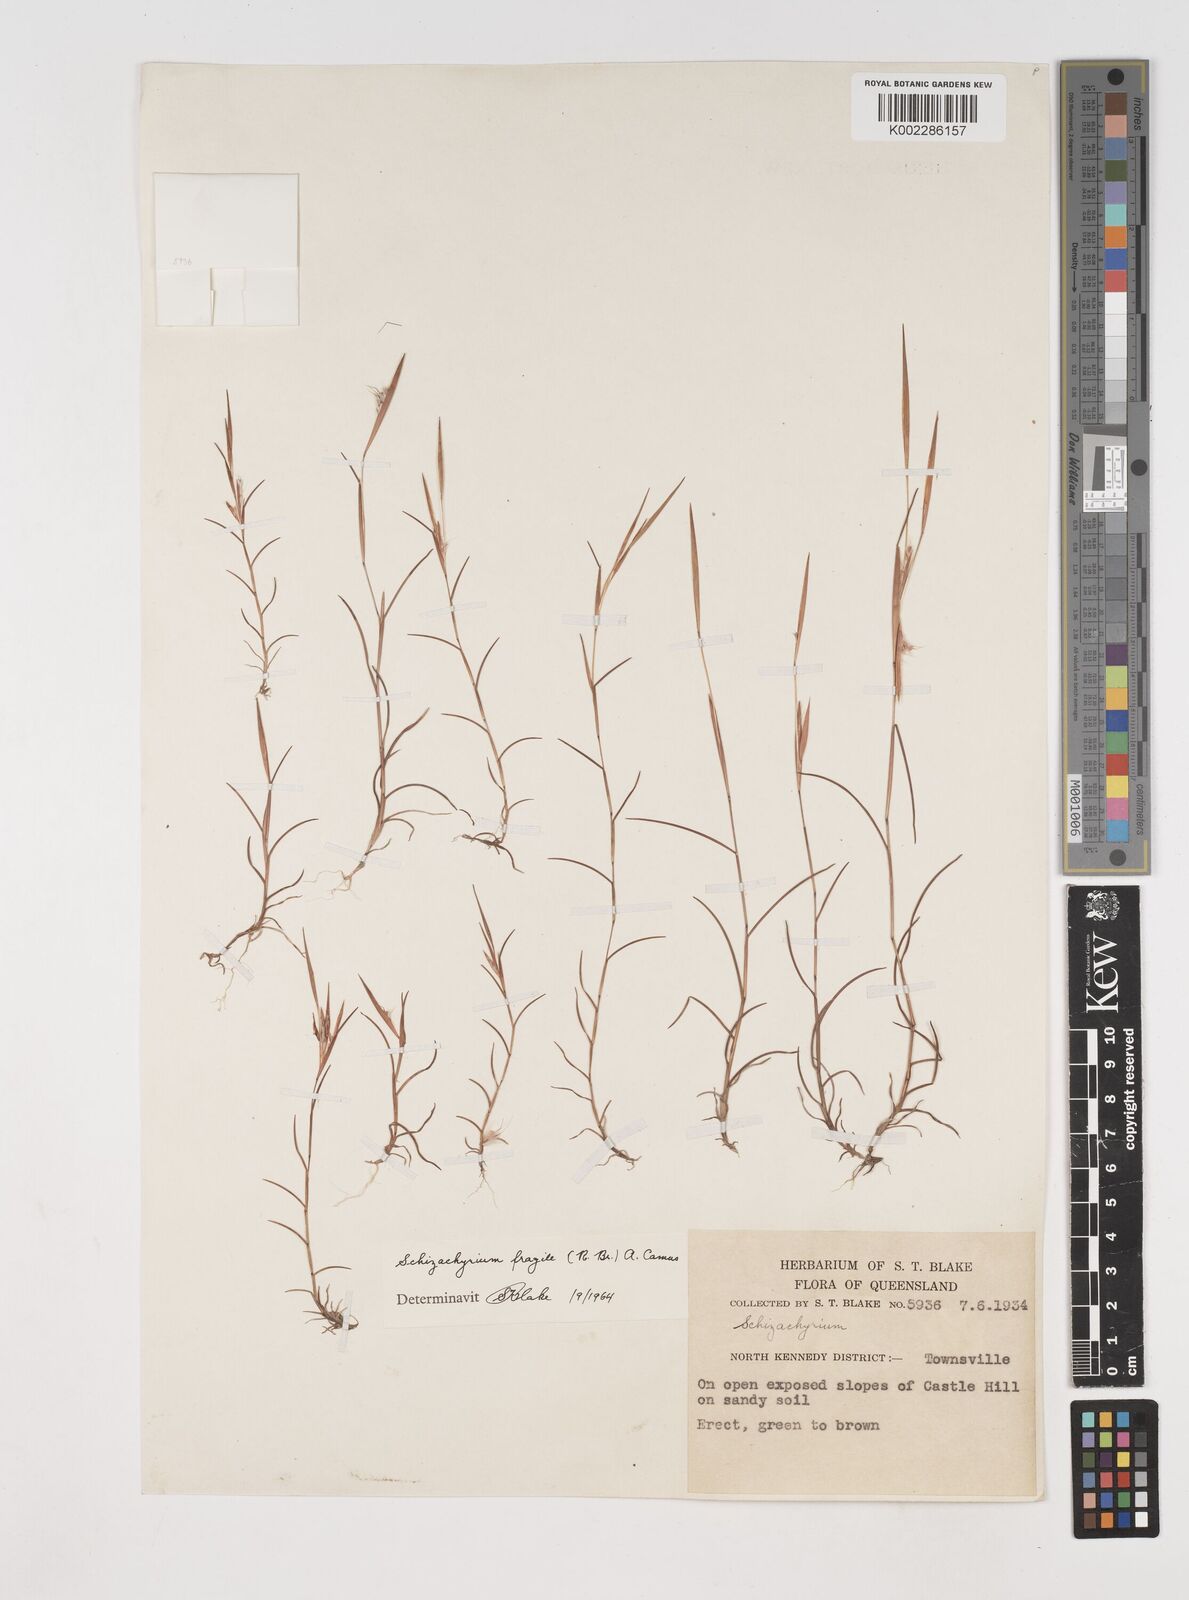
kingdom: Plantae
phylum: Tracheophyta
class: Liliopsida
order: Poales
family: Poaceae
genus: Schizachyrium
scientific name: Schizachyrium fragile
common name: Red spathe grass
